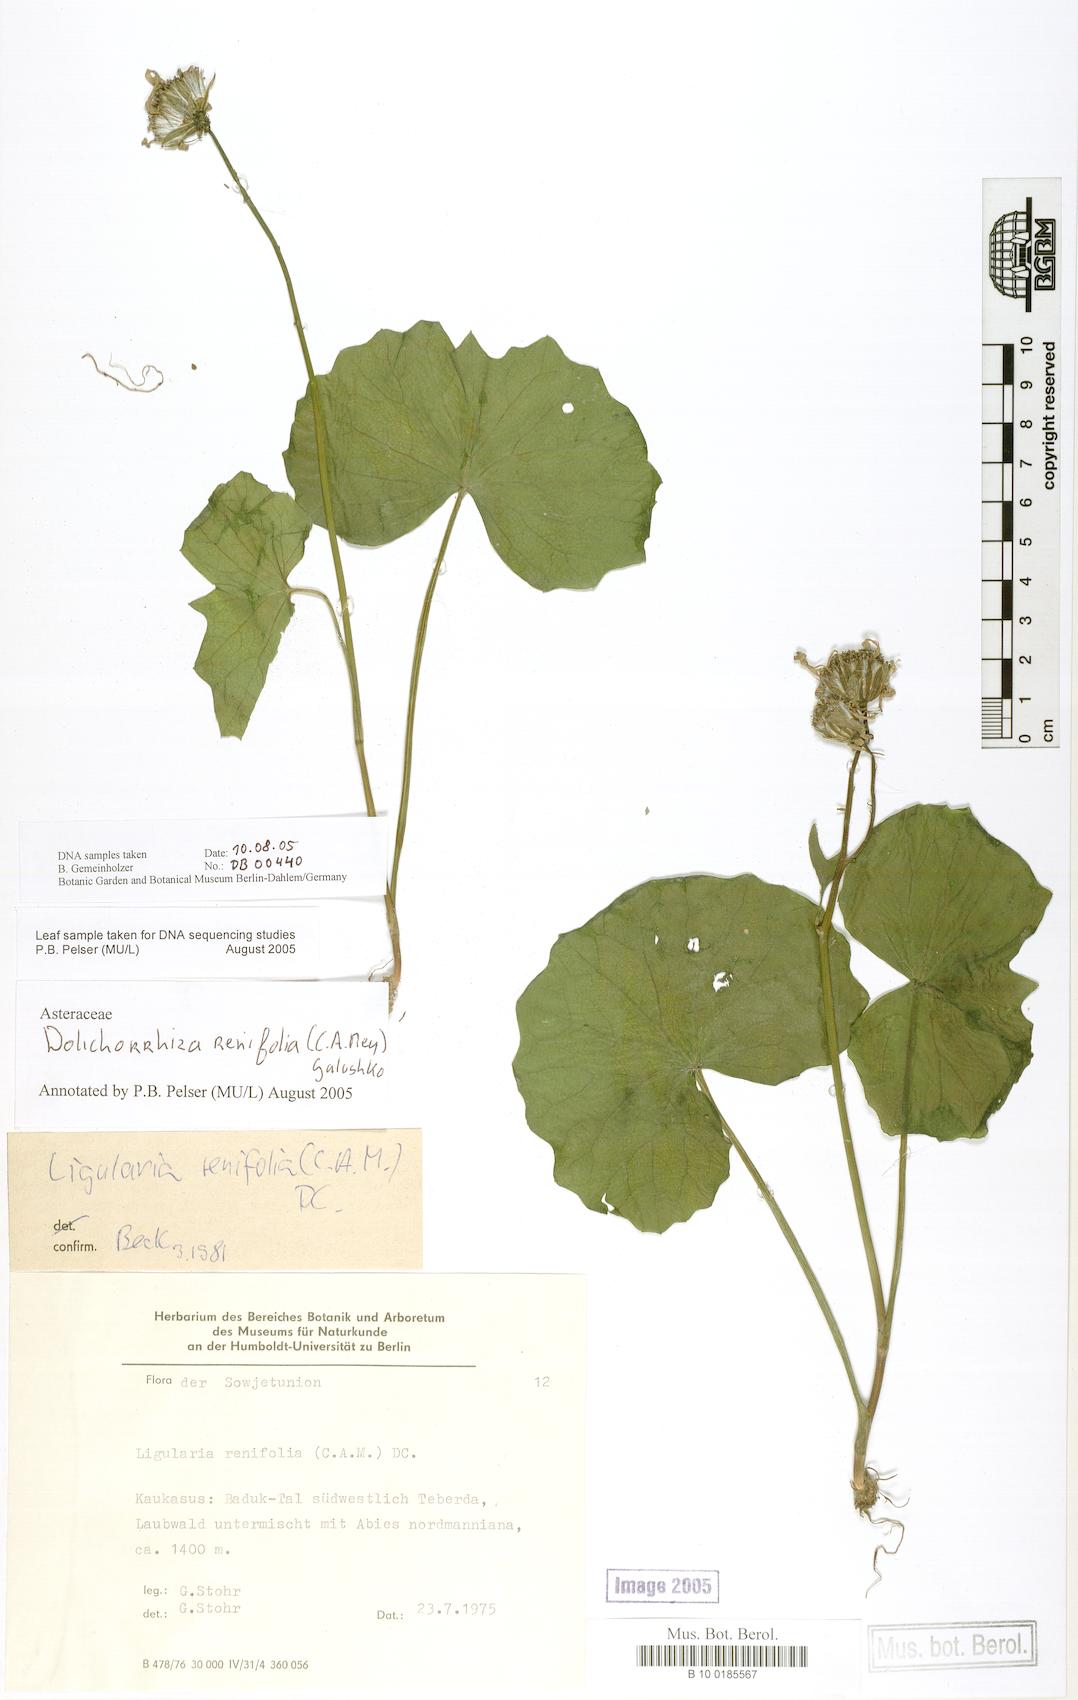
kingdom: Plantae
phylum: Tracheophyta
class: Magnoliopsida
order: Asterales
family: Asteraceae
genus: Dolichorrhiza
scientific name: Dolichorrhiza renifolia
